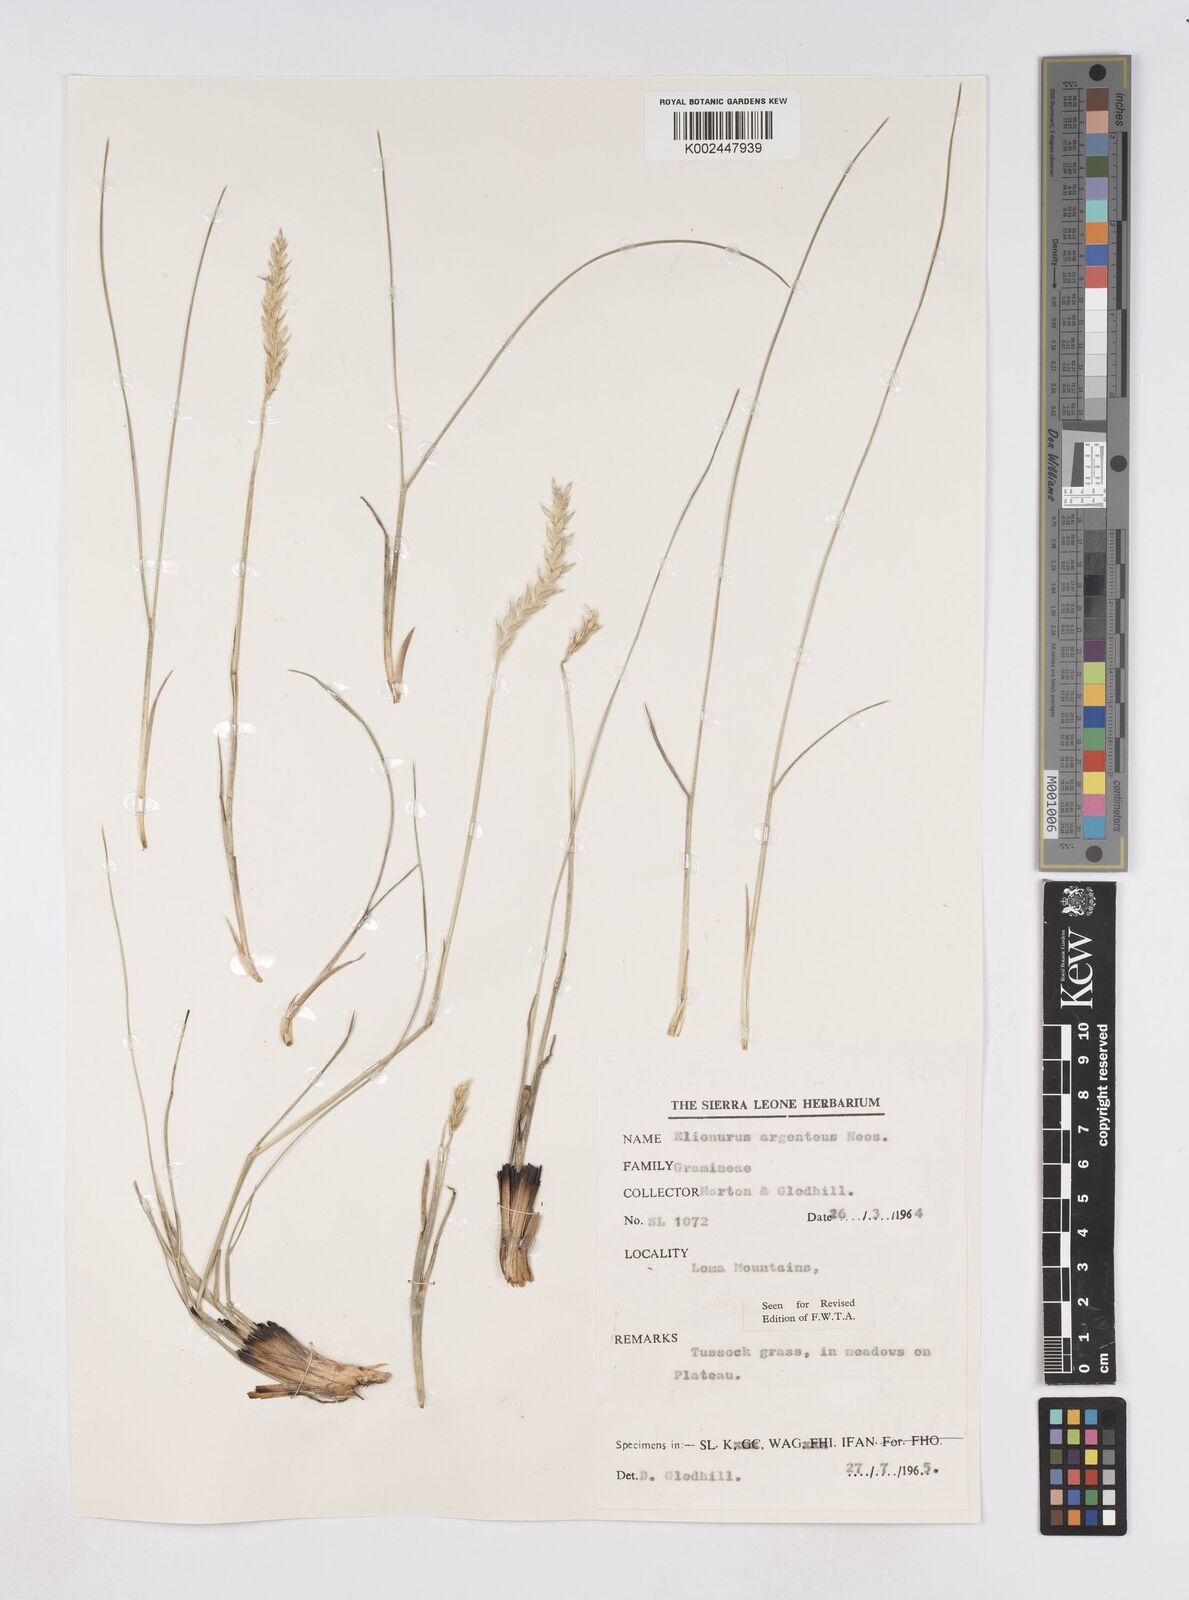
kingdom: Plantae
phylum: Tracheophyta
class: Liliopsida
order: Poales
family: Poaceae
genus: Elionurus
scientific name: Elionurus muticus
